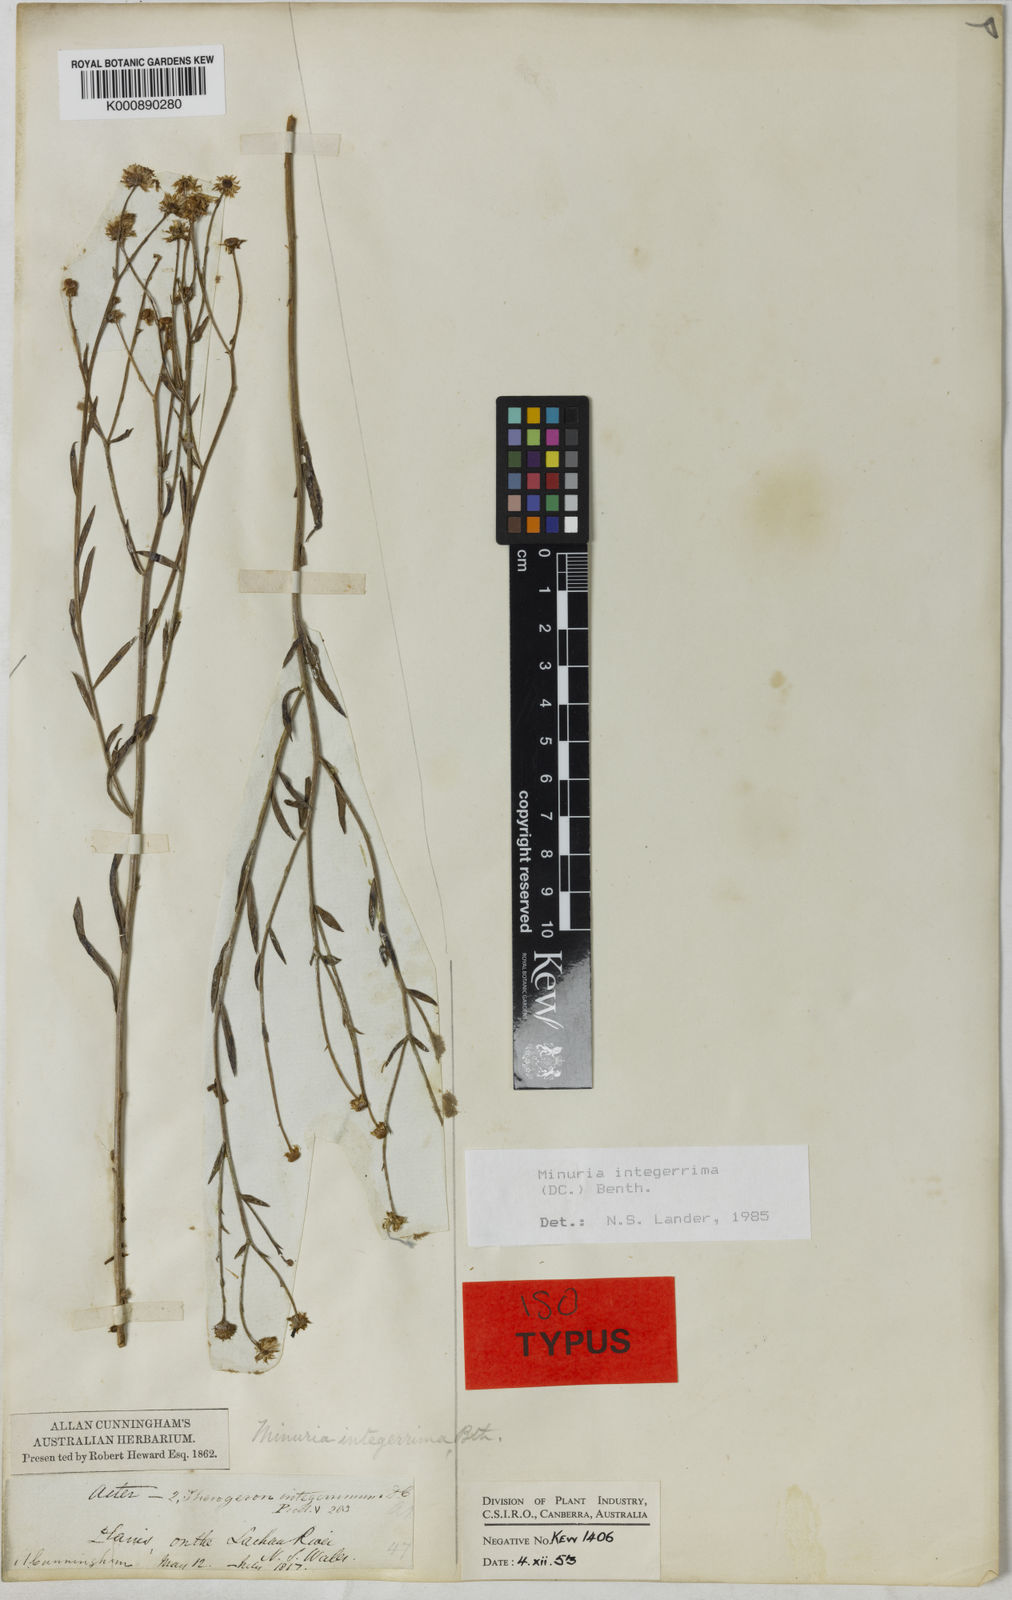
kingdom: Plantae
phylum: Tracheophyta
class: Magnoliopsida
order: Asterales
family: Asteraceae
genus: Minuria
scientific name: Minuria integerrima
